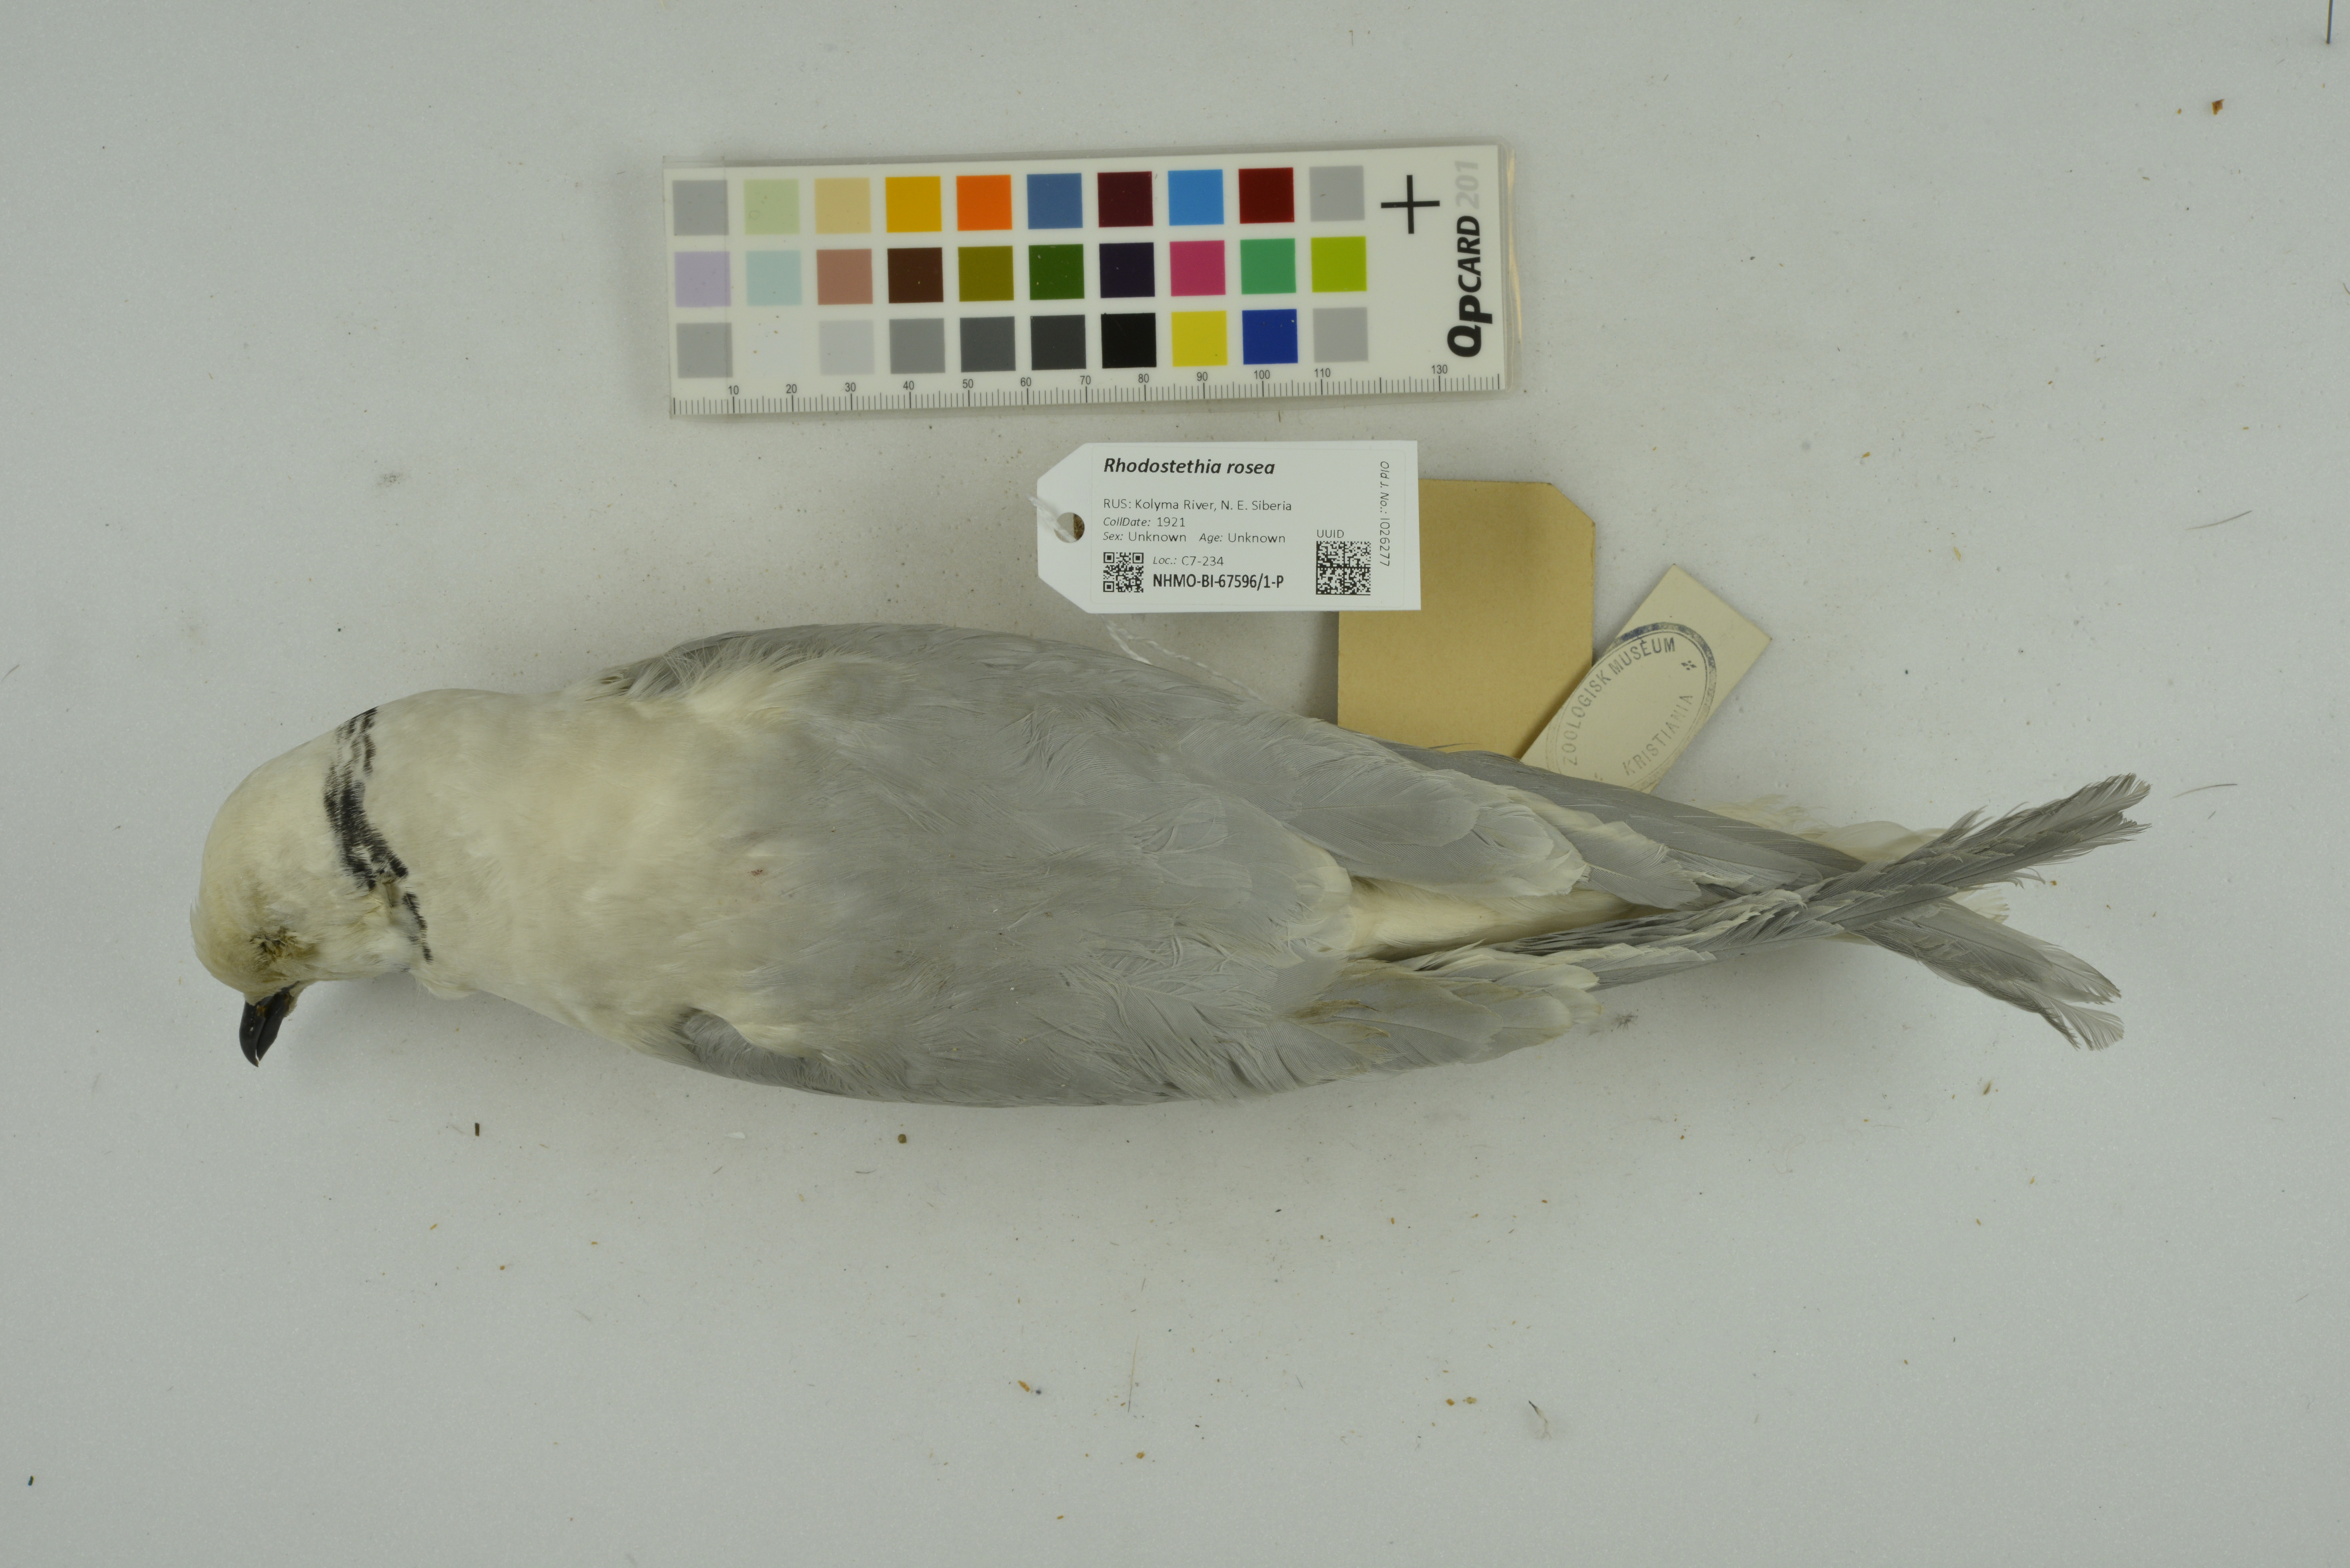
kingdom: Animalia
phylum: Chordata
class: Aves
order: Charadriiformes
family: Laridae
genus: Rhodostethia
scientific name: Rhodostethia rosea
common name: Ross's gull
